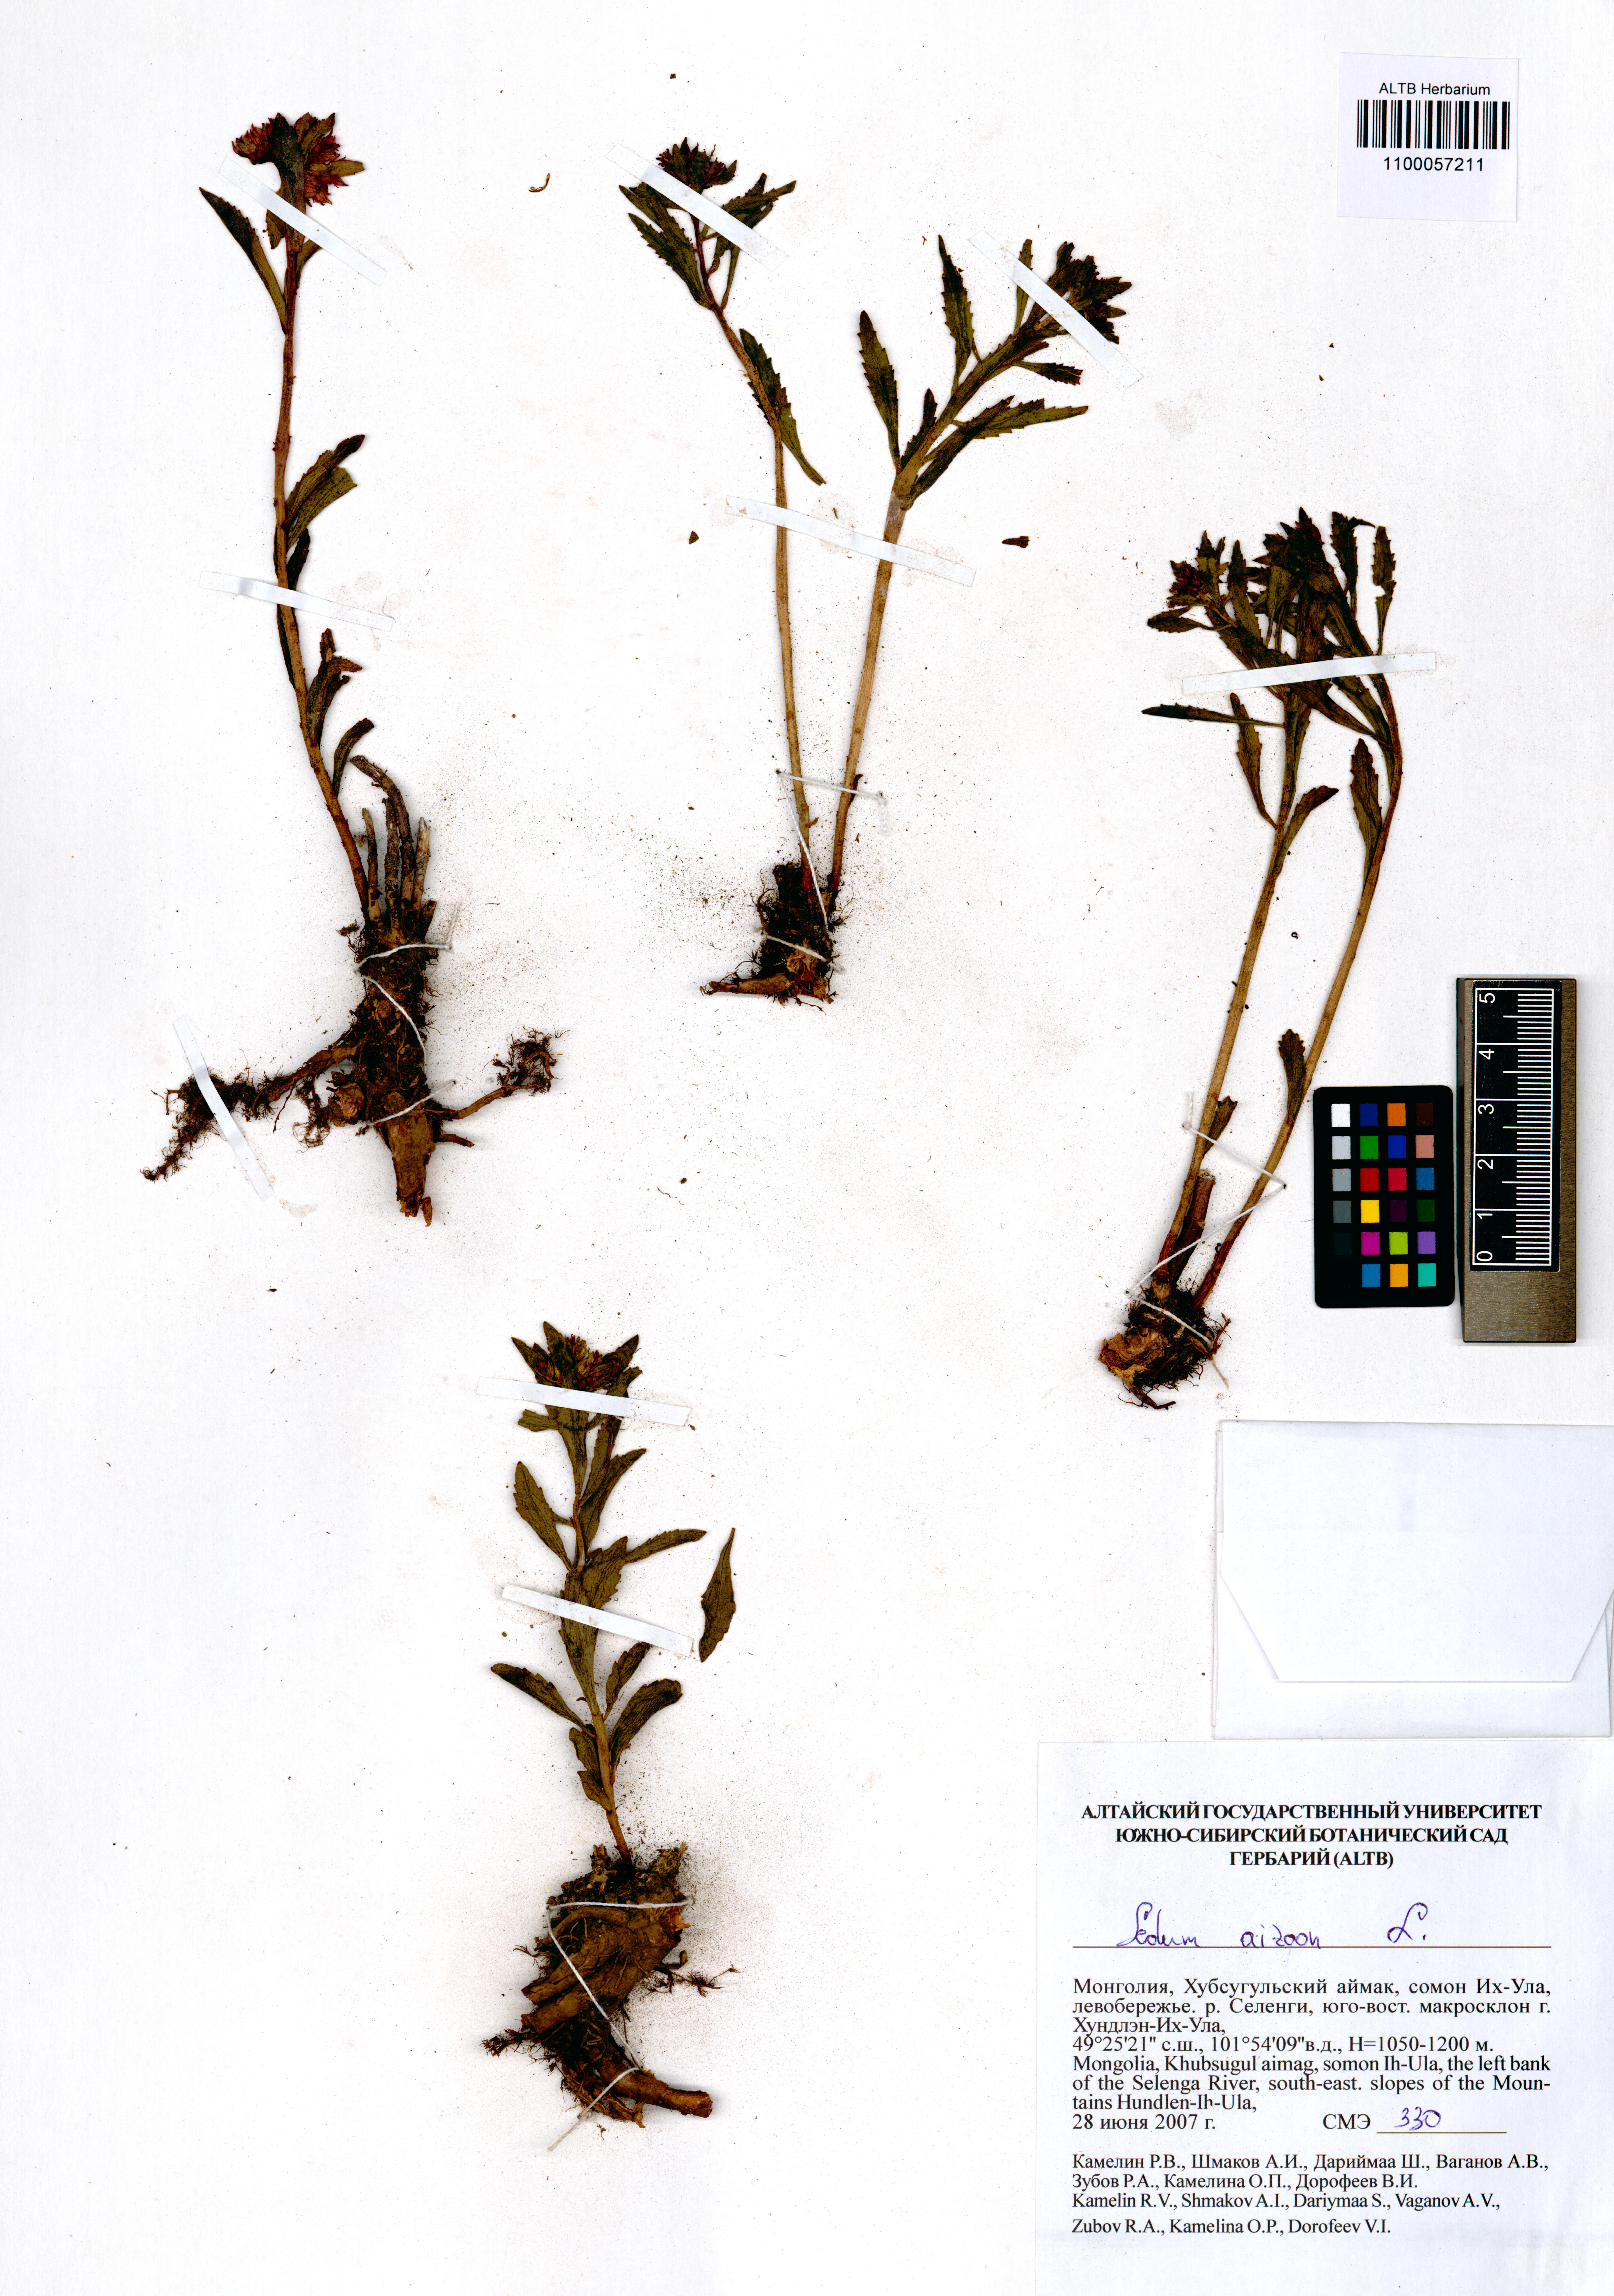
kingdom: Plantae
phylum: Tracheophyta
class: Magnoliopsida
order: Saxifragales
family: Crassulaceae
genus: Phedimus
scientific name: Phedimus aizoon
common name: Orpin aizoon
